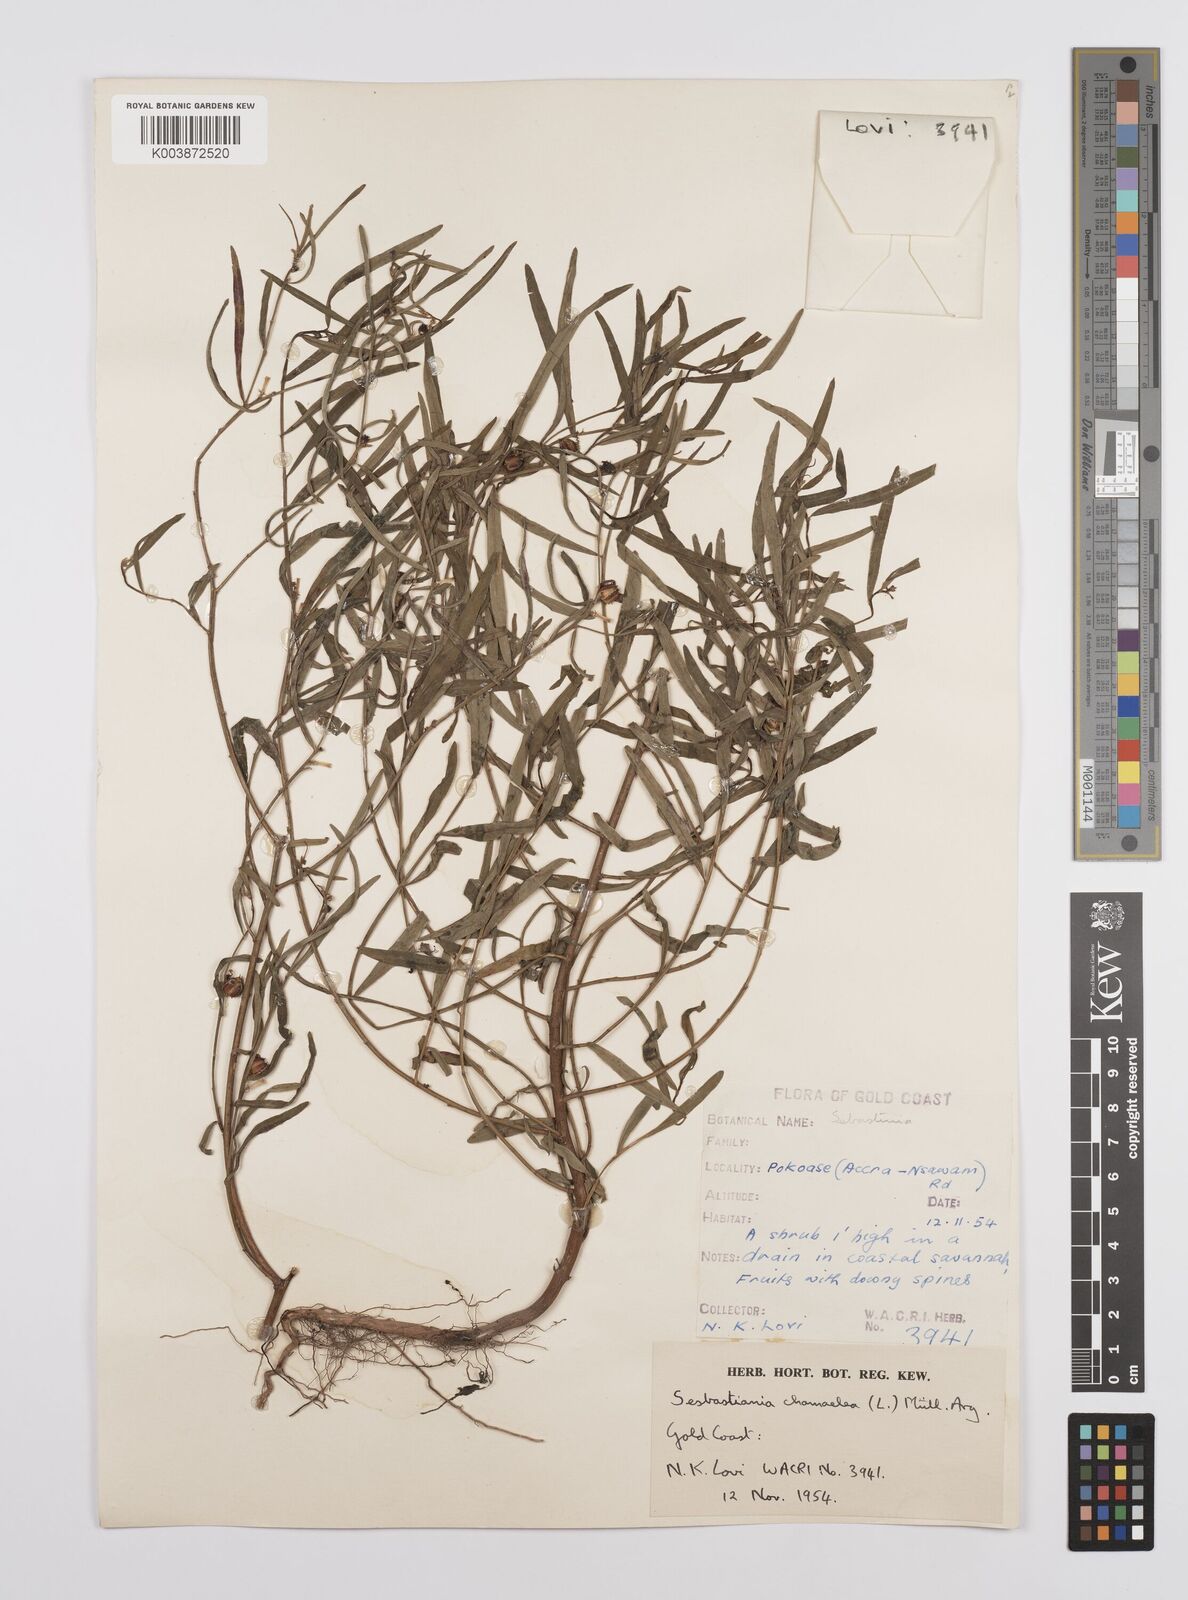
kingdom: Plantae
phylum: Tracheophyta
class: Magnoliopsida
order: Malpighiales
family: Euphorbiaceae
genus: Microstachys
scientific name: Microstachys chamaelea
